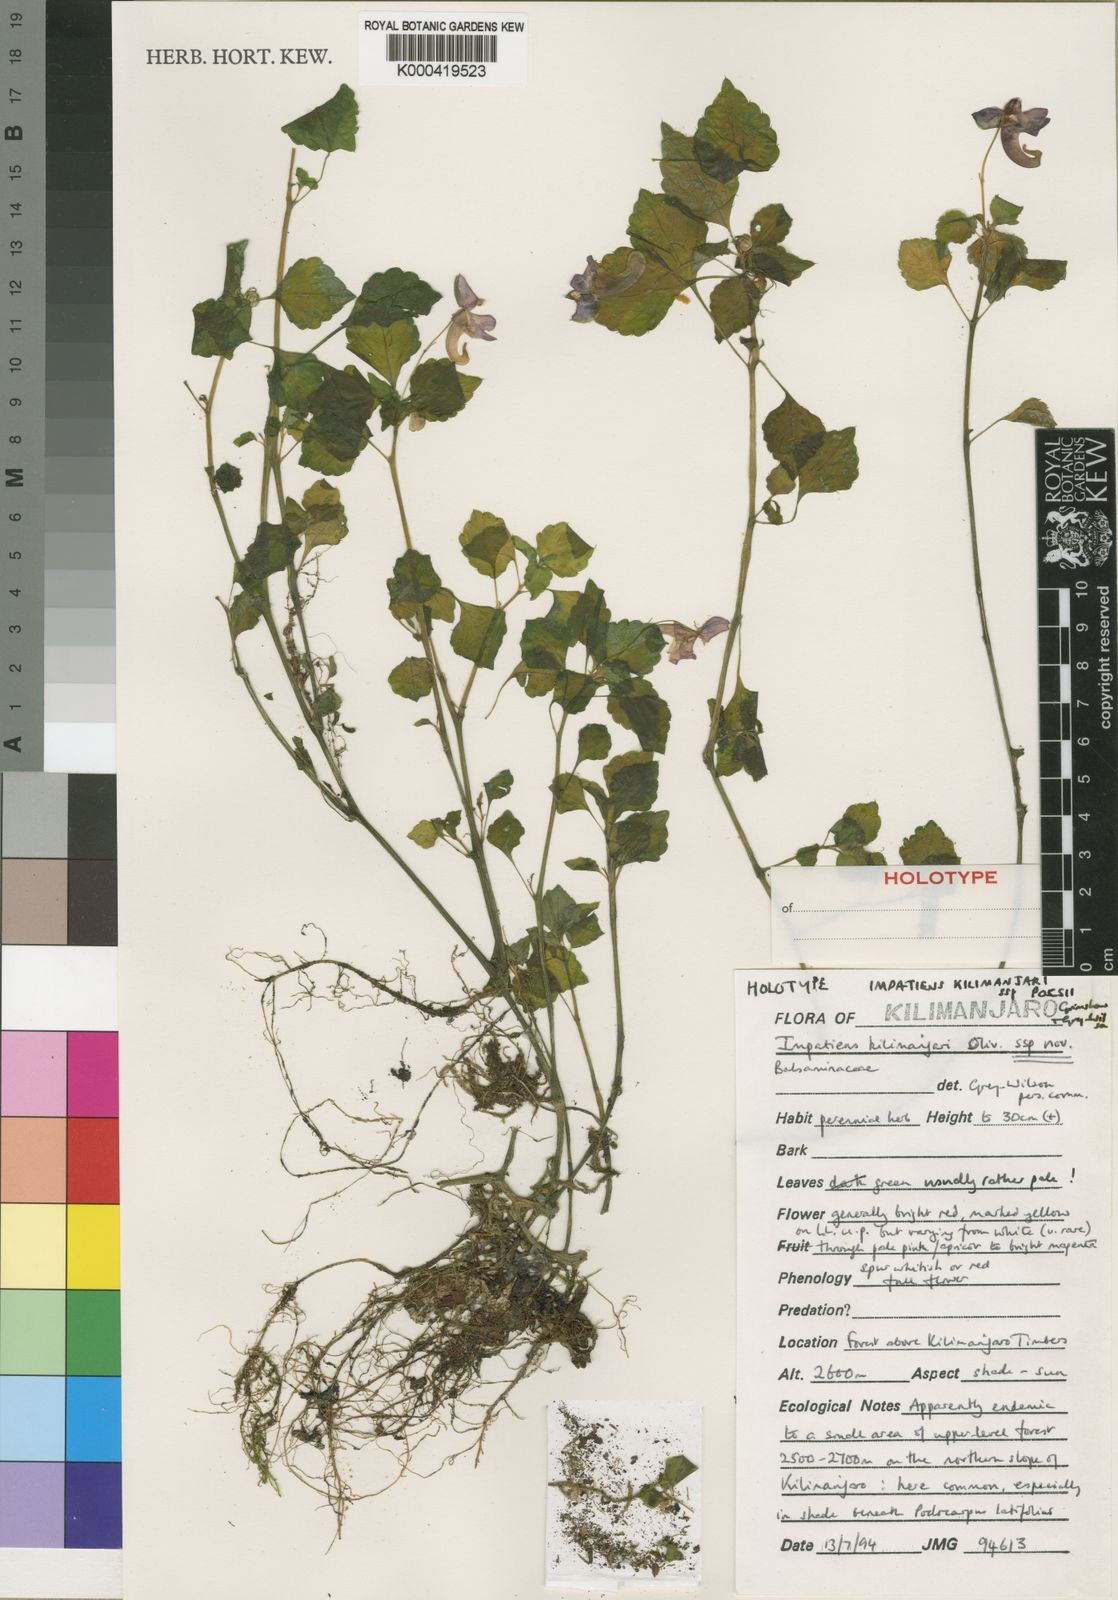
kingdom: Plantae
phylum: Tracheophyta
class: Magnoliopsida
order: Ericales
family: Balsaminaceae
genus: Impatiens
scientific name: Impatiens kilimanjari
